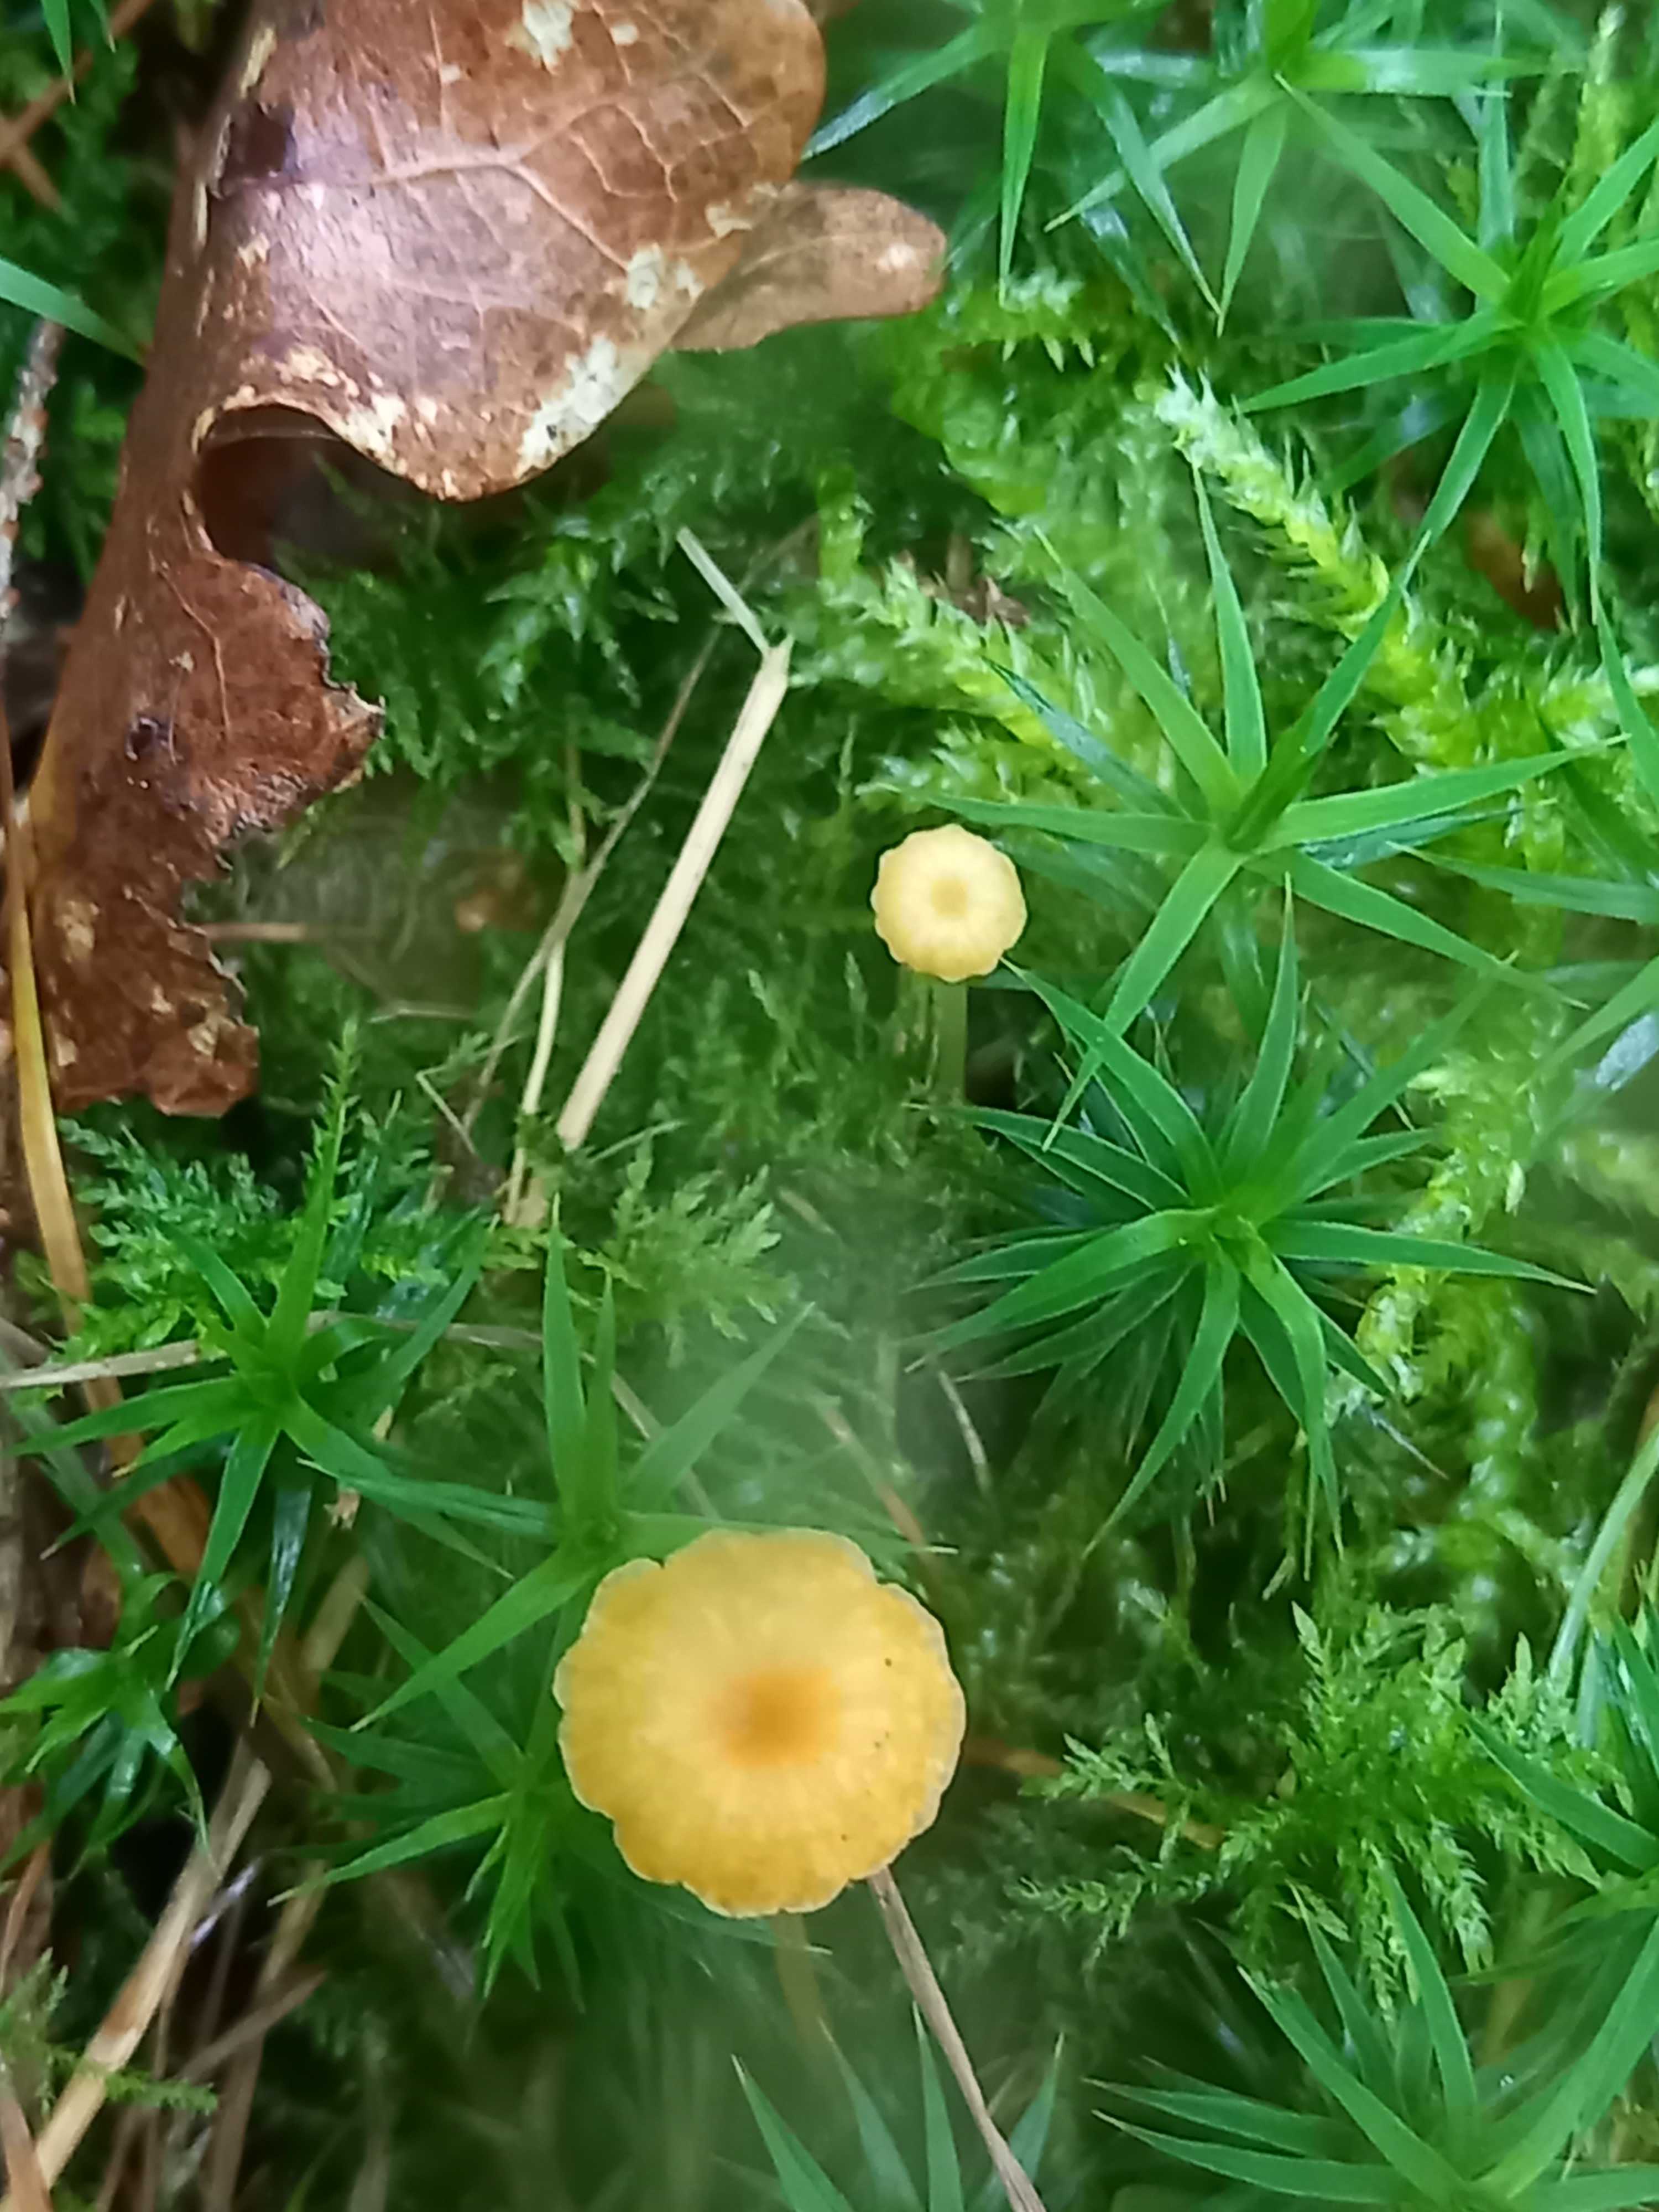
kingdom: Fungi
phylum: Basidiomycota
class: Agaricomycetes
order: Hymenochaetales
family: Rickenellaceae
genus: Rickenella
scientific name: Rickenella fibula
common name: orange mosnavlehat
